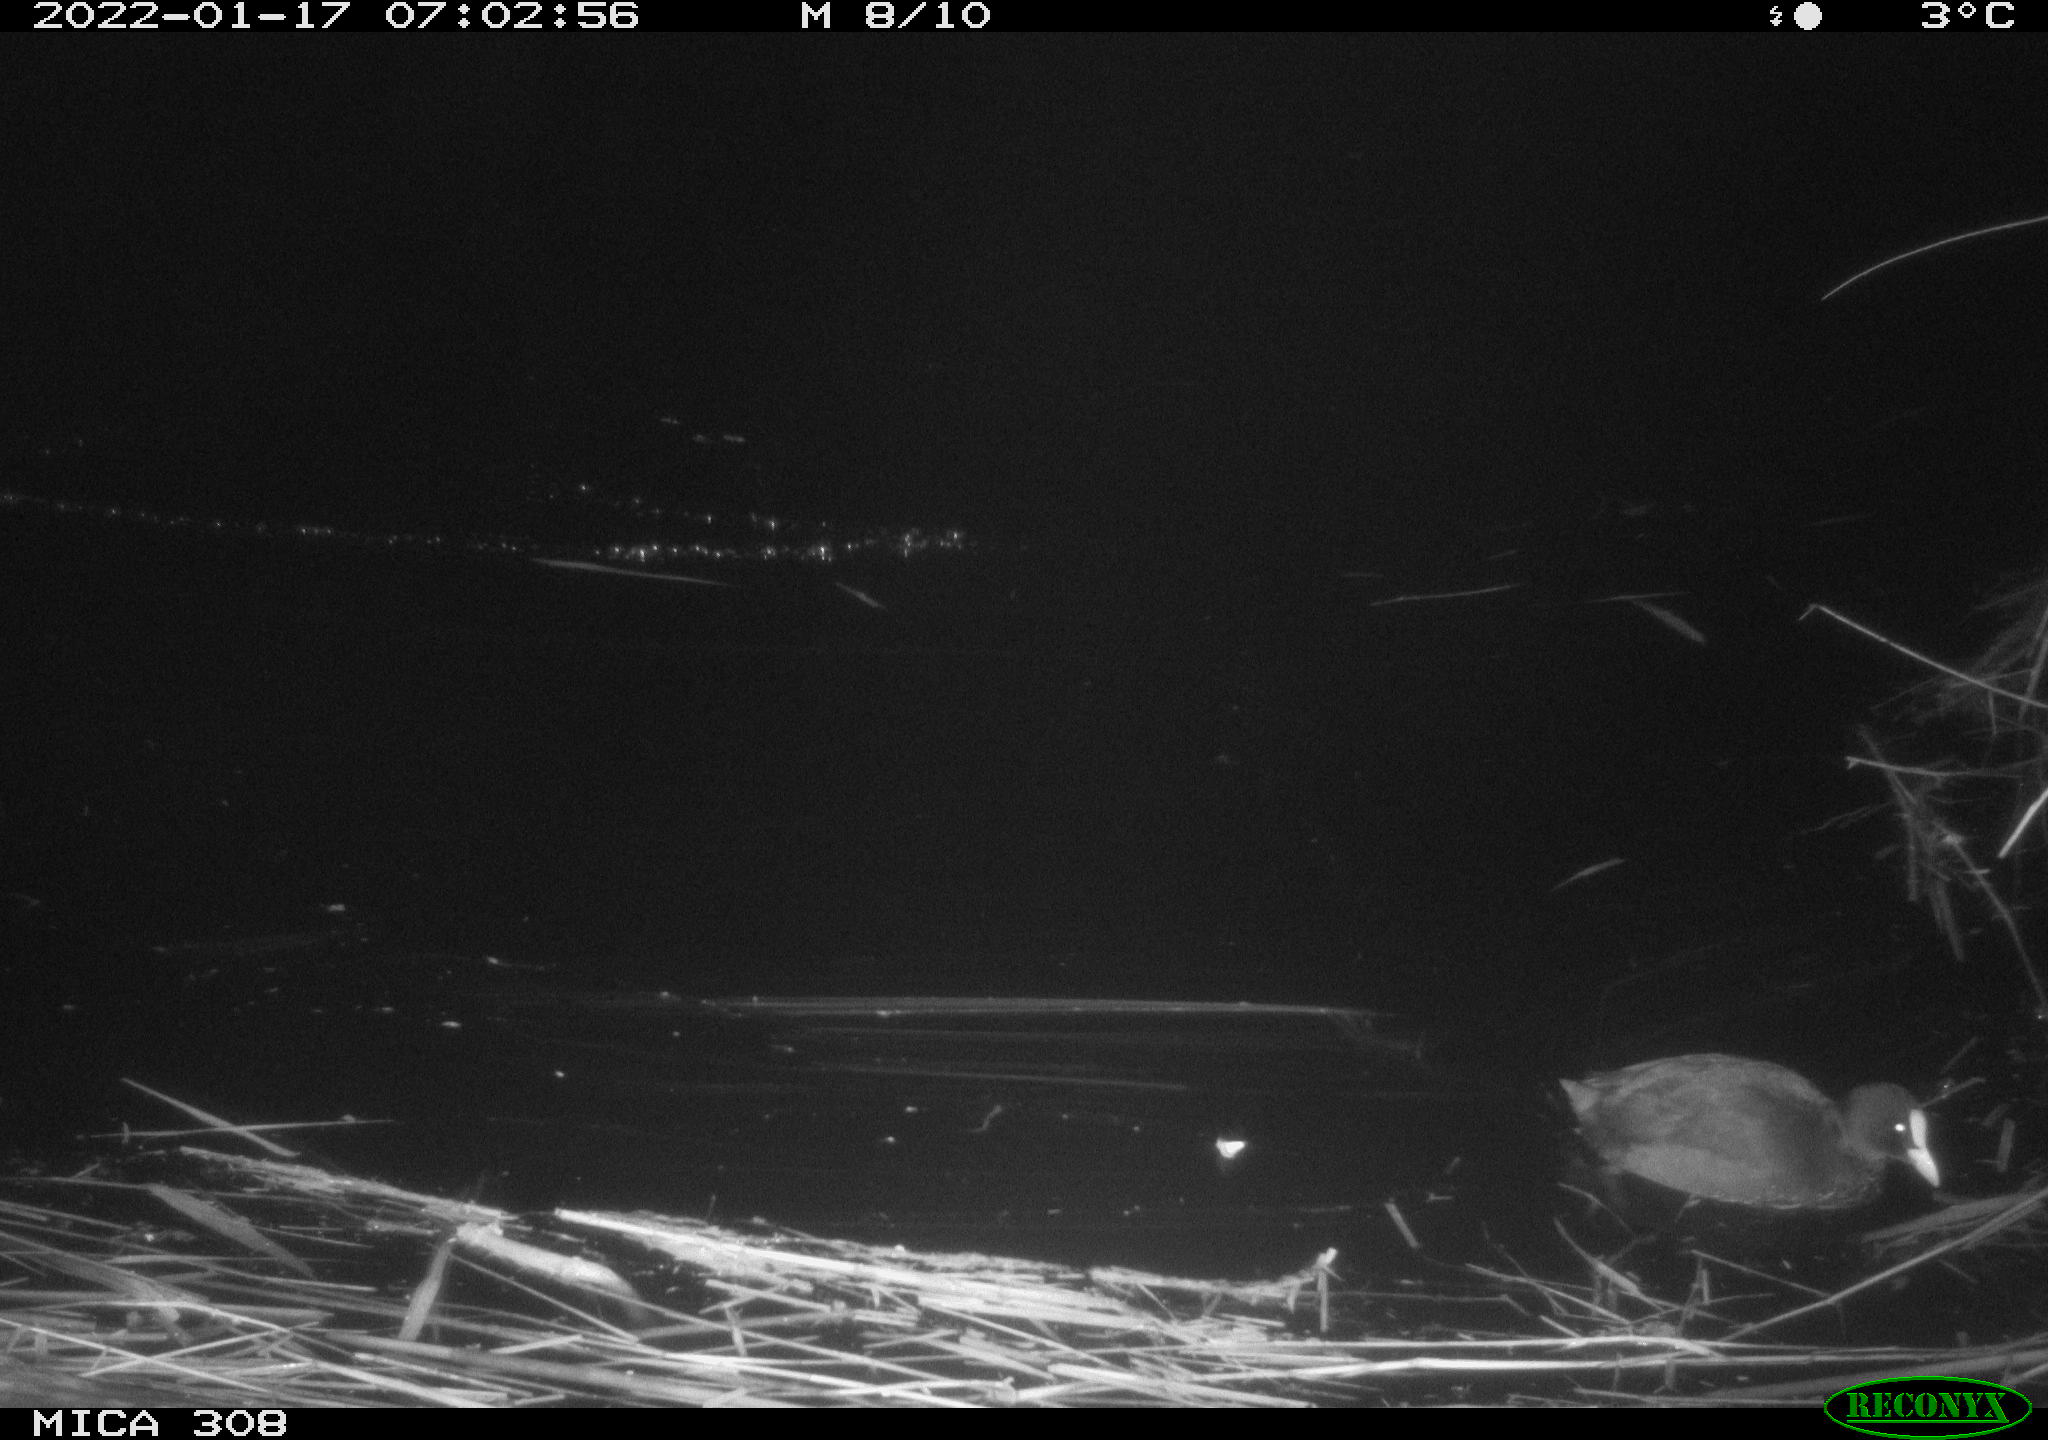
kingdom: Animalia
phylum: Chordata
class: Aves
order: Gruiformes
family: Rallidae
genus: Fulica
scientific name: Fulica atra
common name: Eurasian coot
